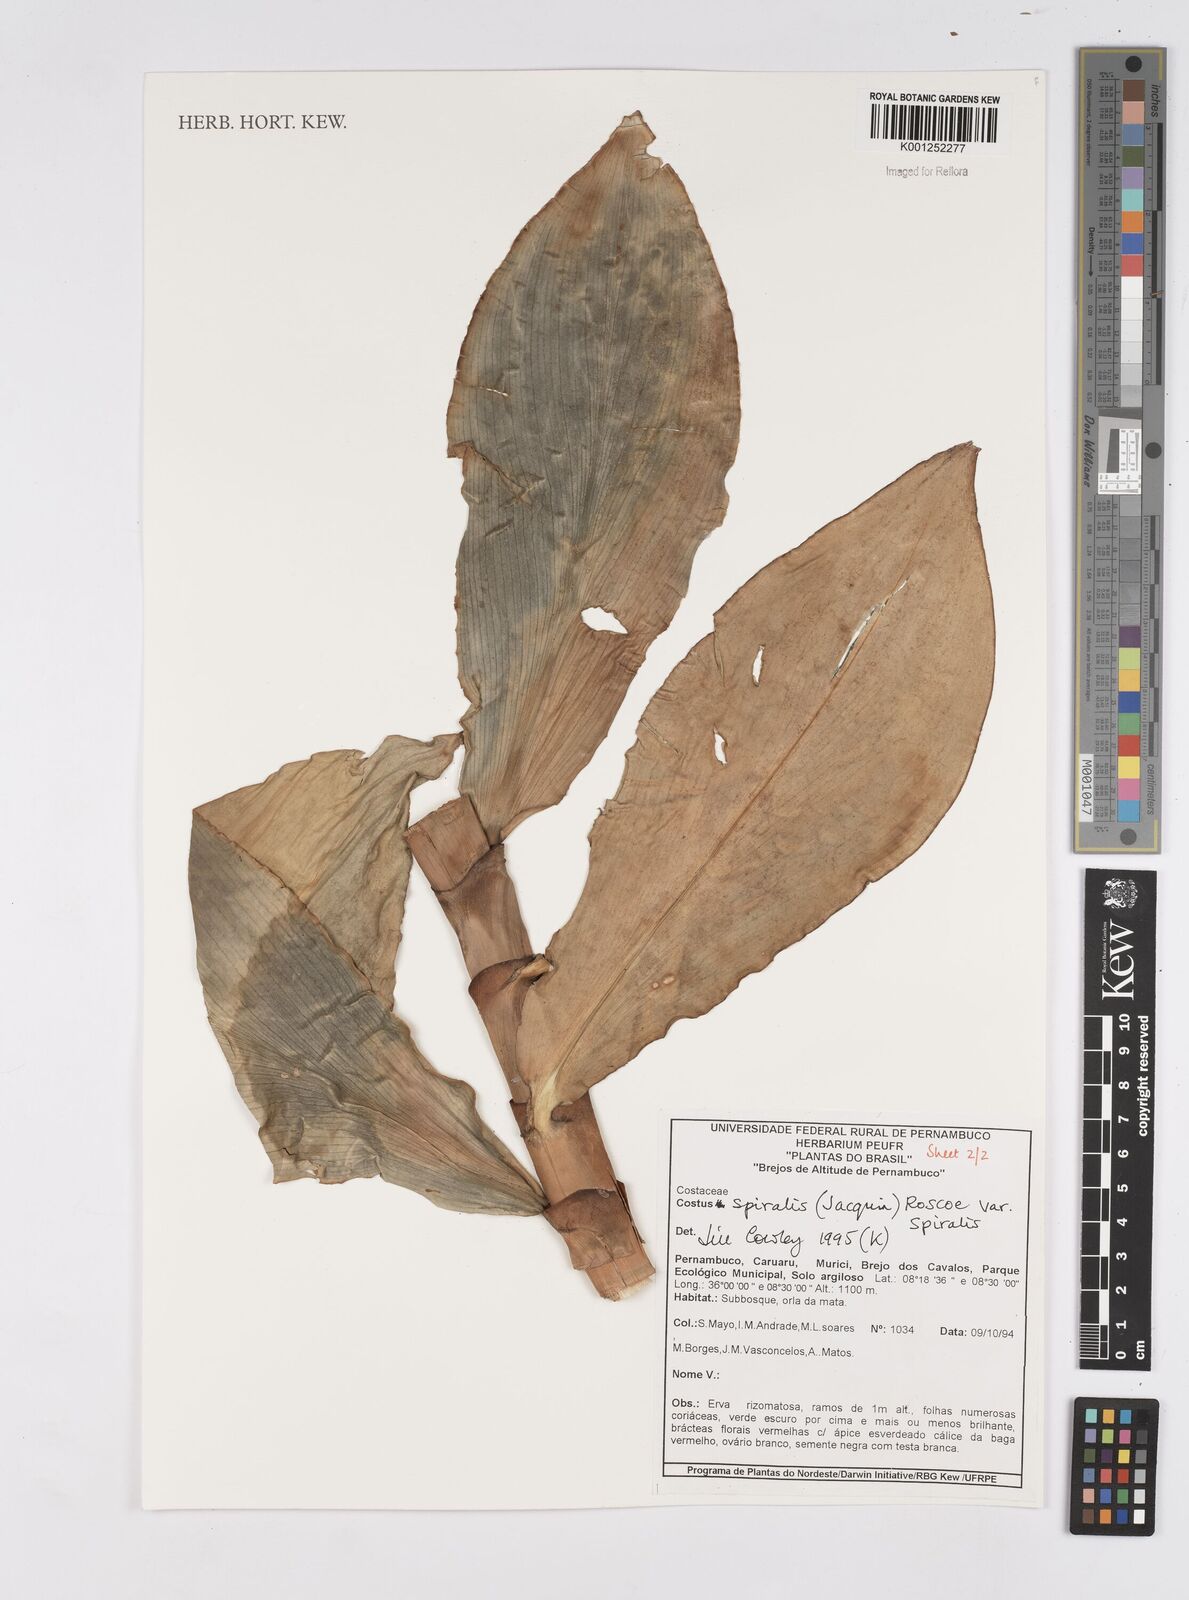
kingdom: Plantae
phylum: Tracheophyta
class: Liliopsida
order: Zingiberales
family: Costaceae
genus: Costus
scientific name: Costus spiralis
